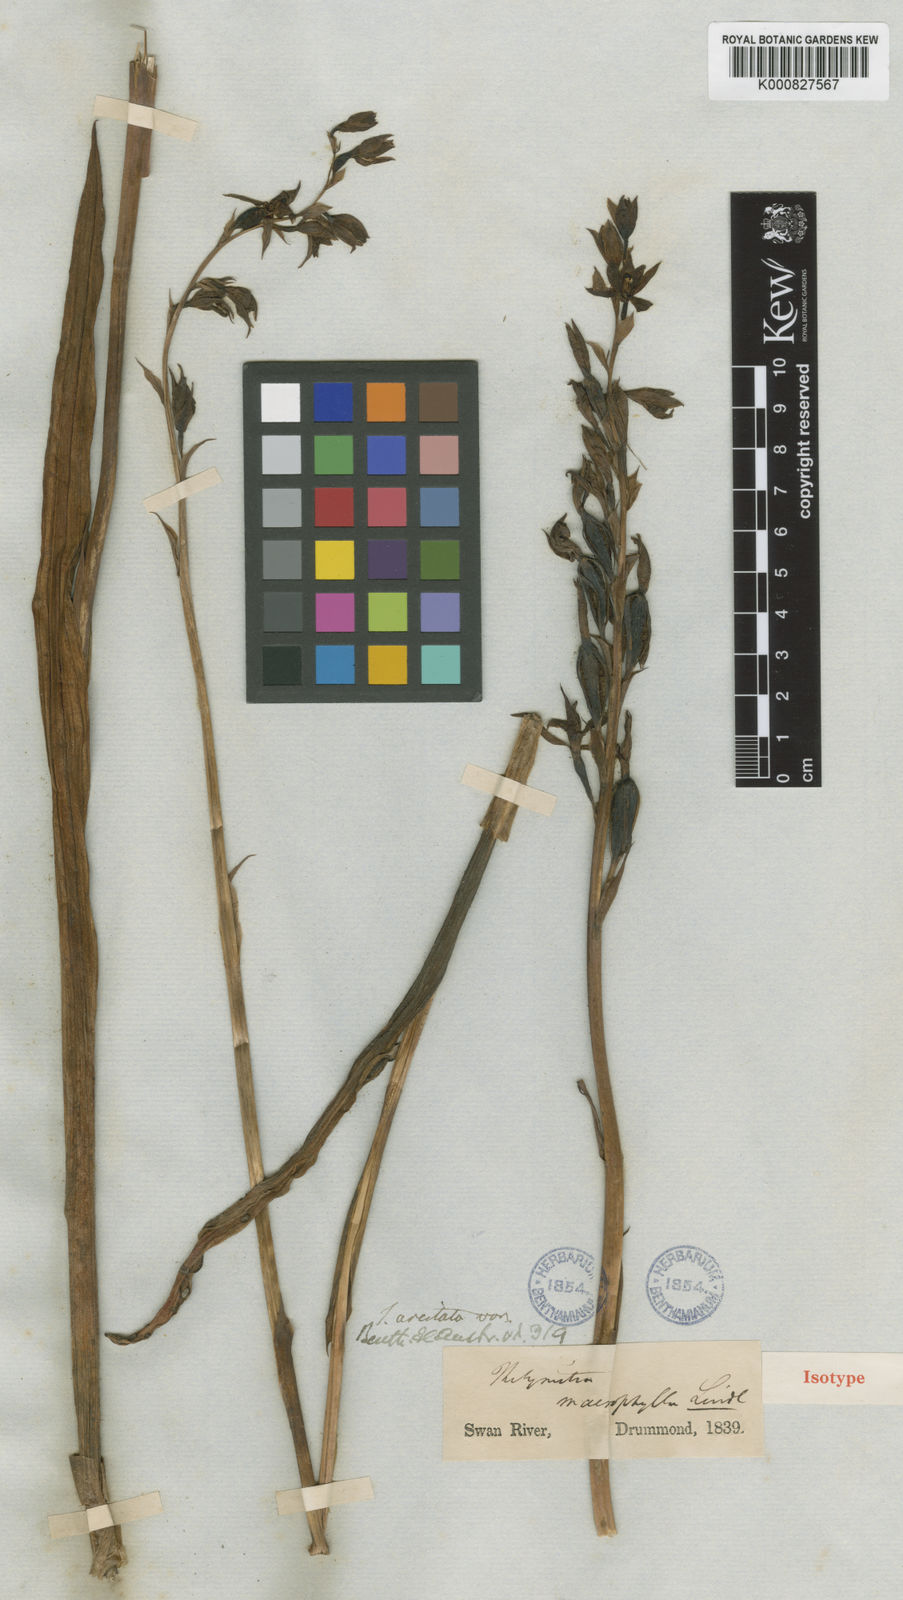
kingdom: Plantae
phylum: Tracheophyta
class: Liliopsida
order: Asparagales
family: Orchidaceae
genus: Thelymitra
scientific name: Thelymitra nuda
